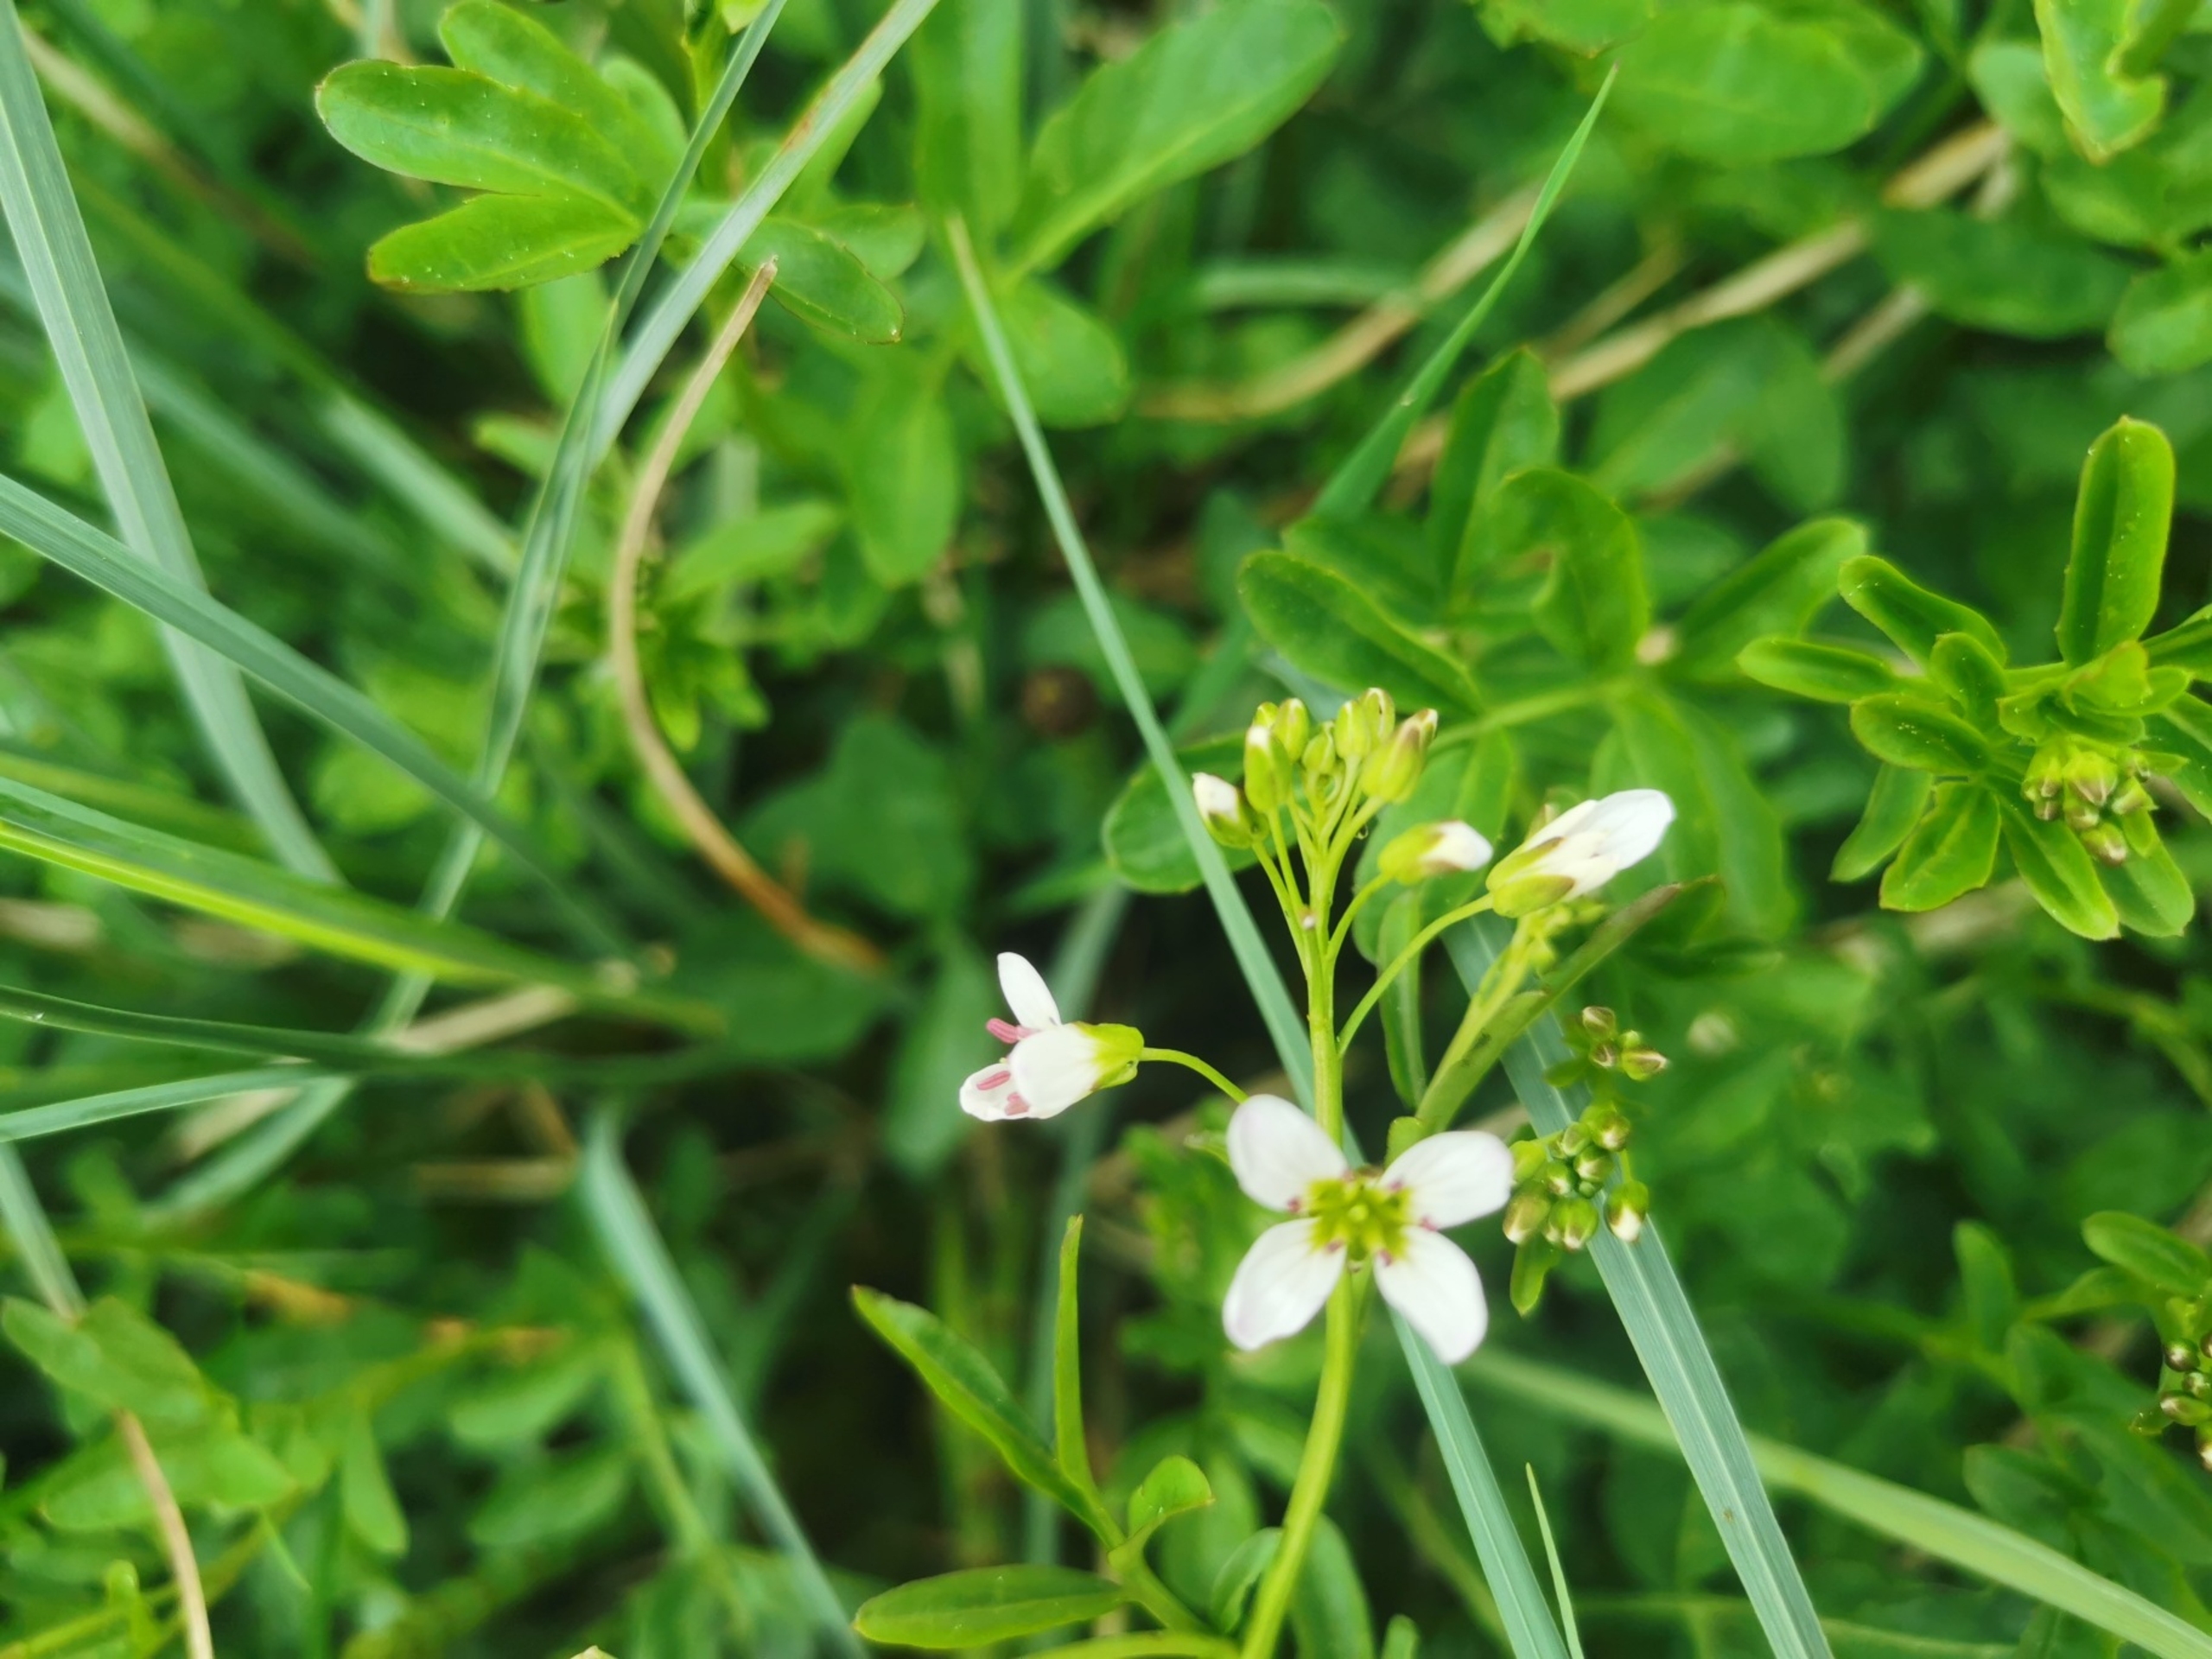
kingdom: Plantae
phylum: Tracheophyta
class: Magnoliopsida
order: Brassicales
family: Brassicaceae
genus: Cardamine
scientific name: Cardamine amara
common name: Vandkarse
